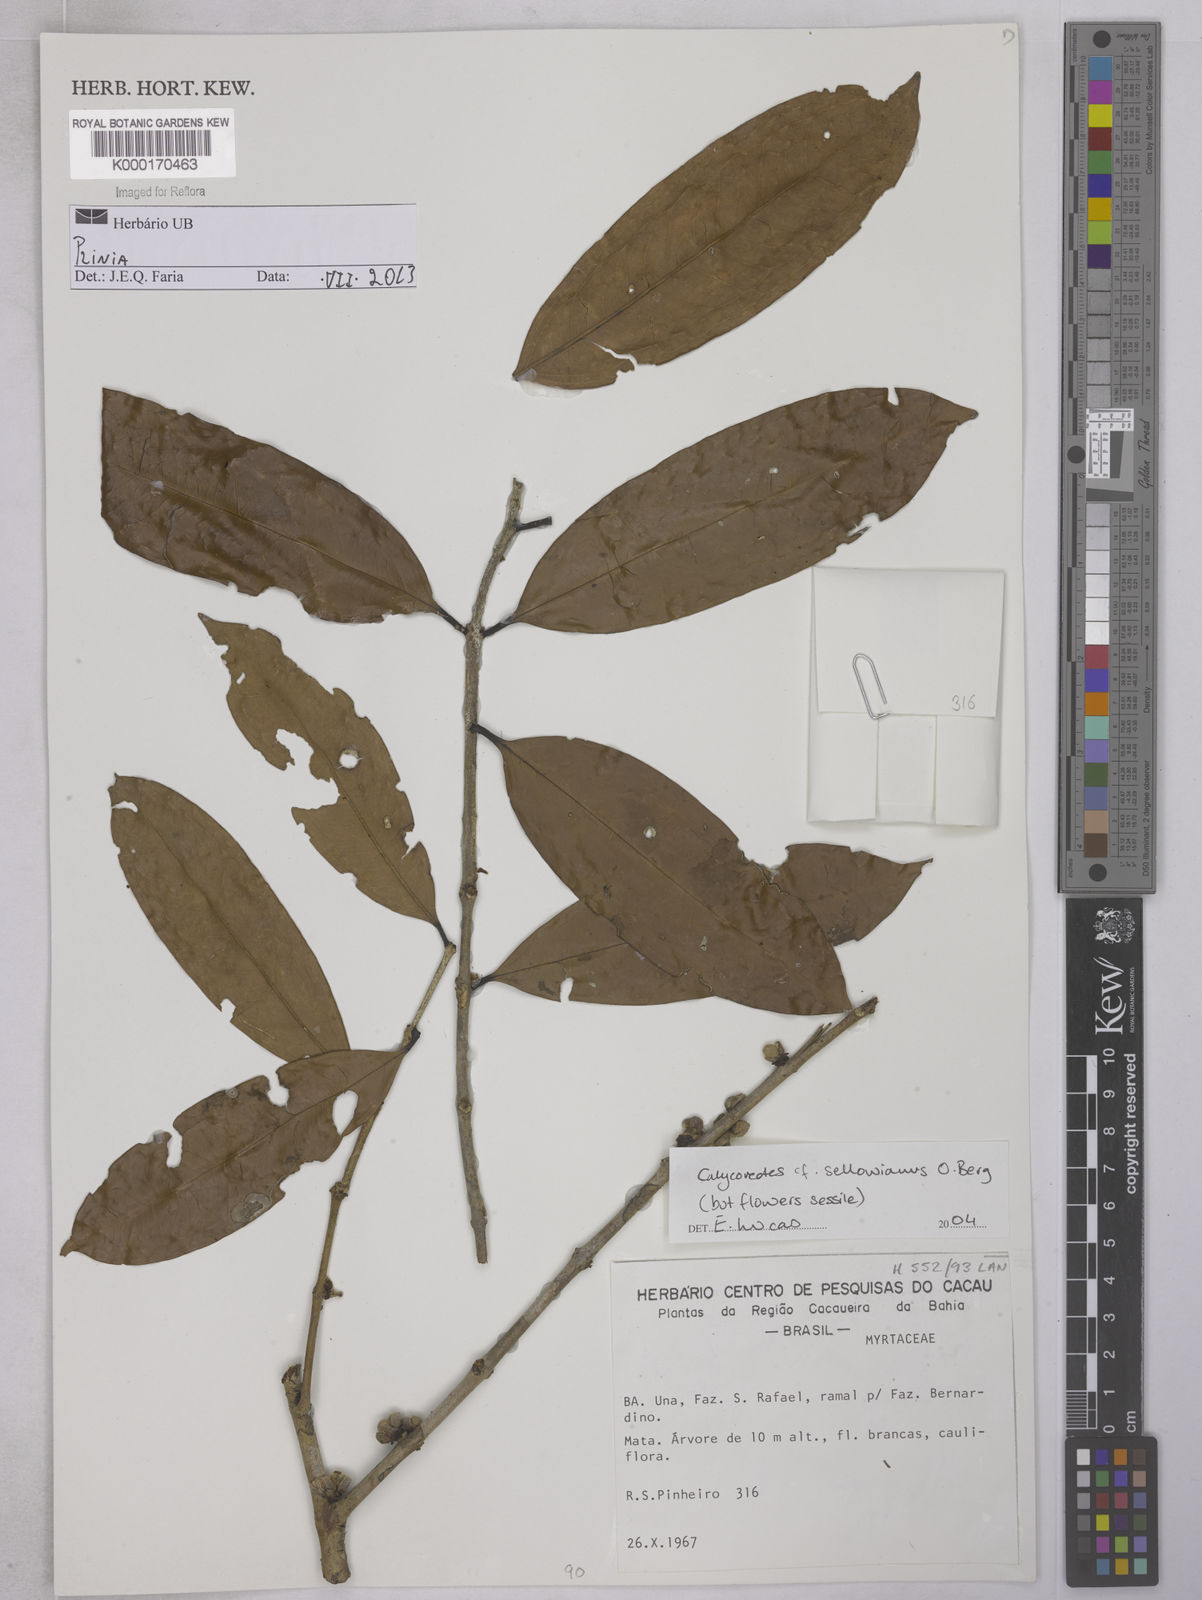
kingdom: Plantae
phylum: Tracheophyta
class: Magnoliopsida
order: Myrtales
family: Myrtaceae
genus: Plinia
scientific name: Plinia muricata
